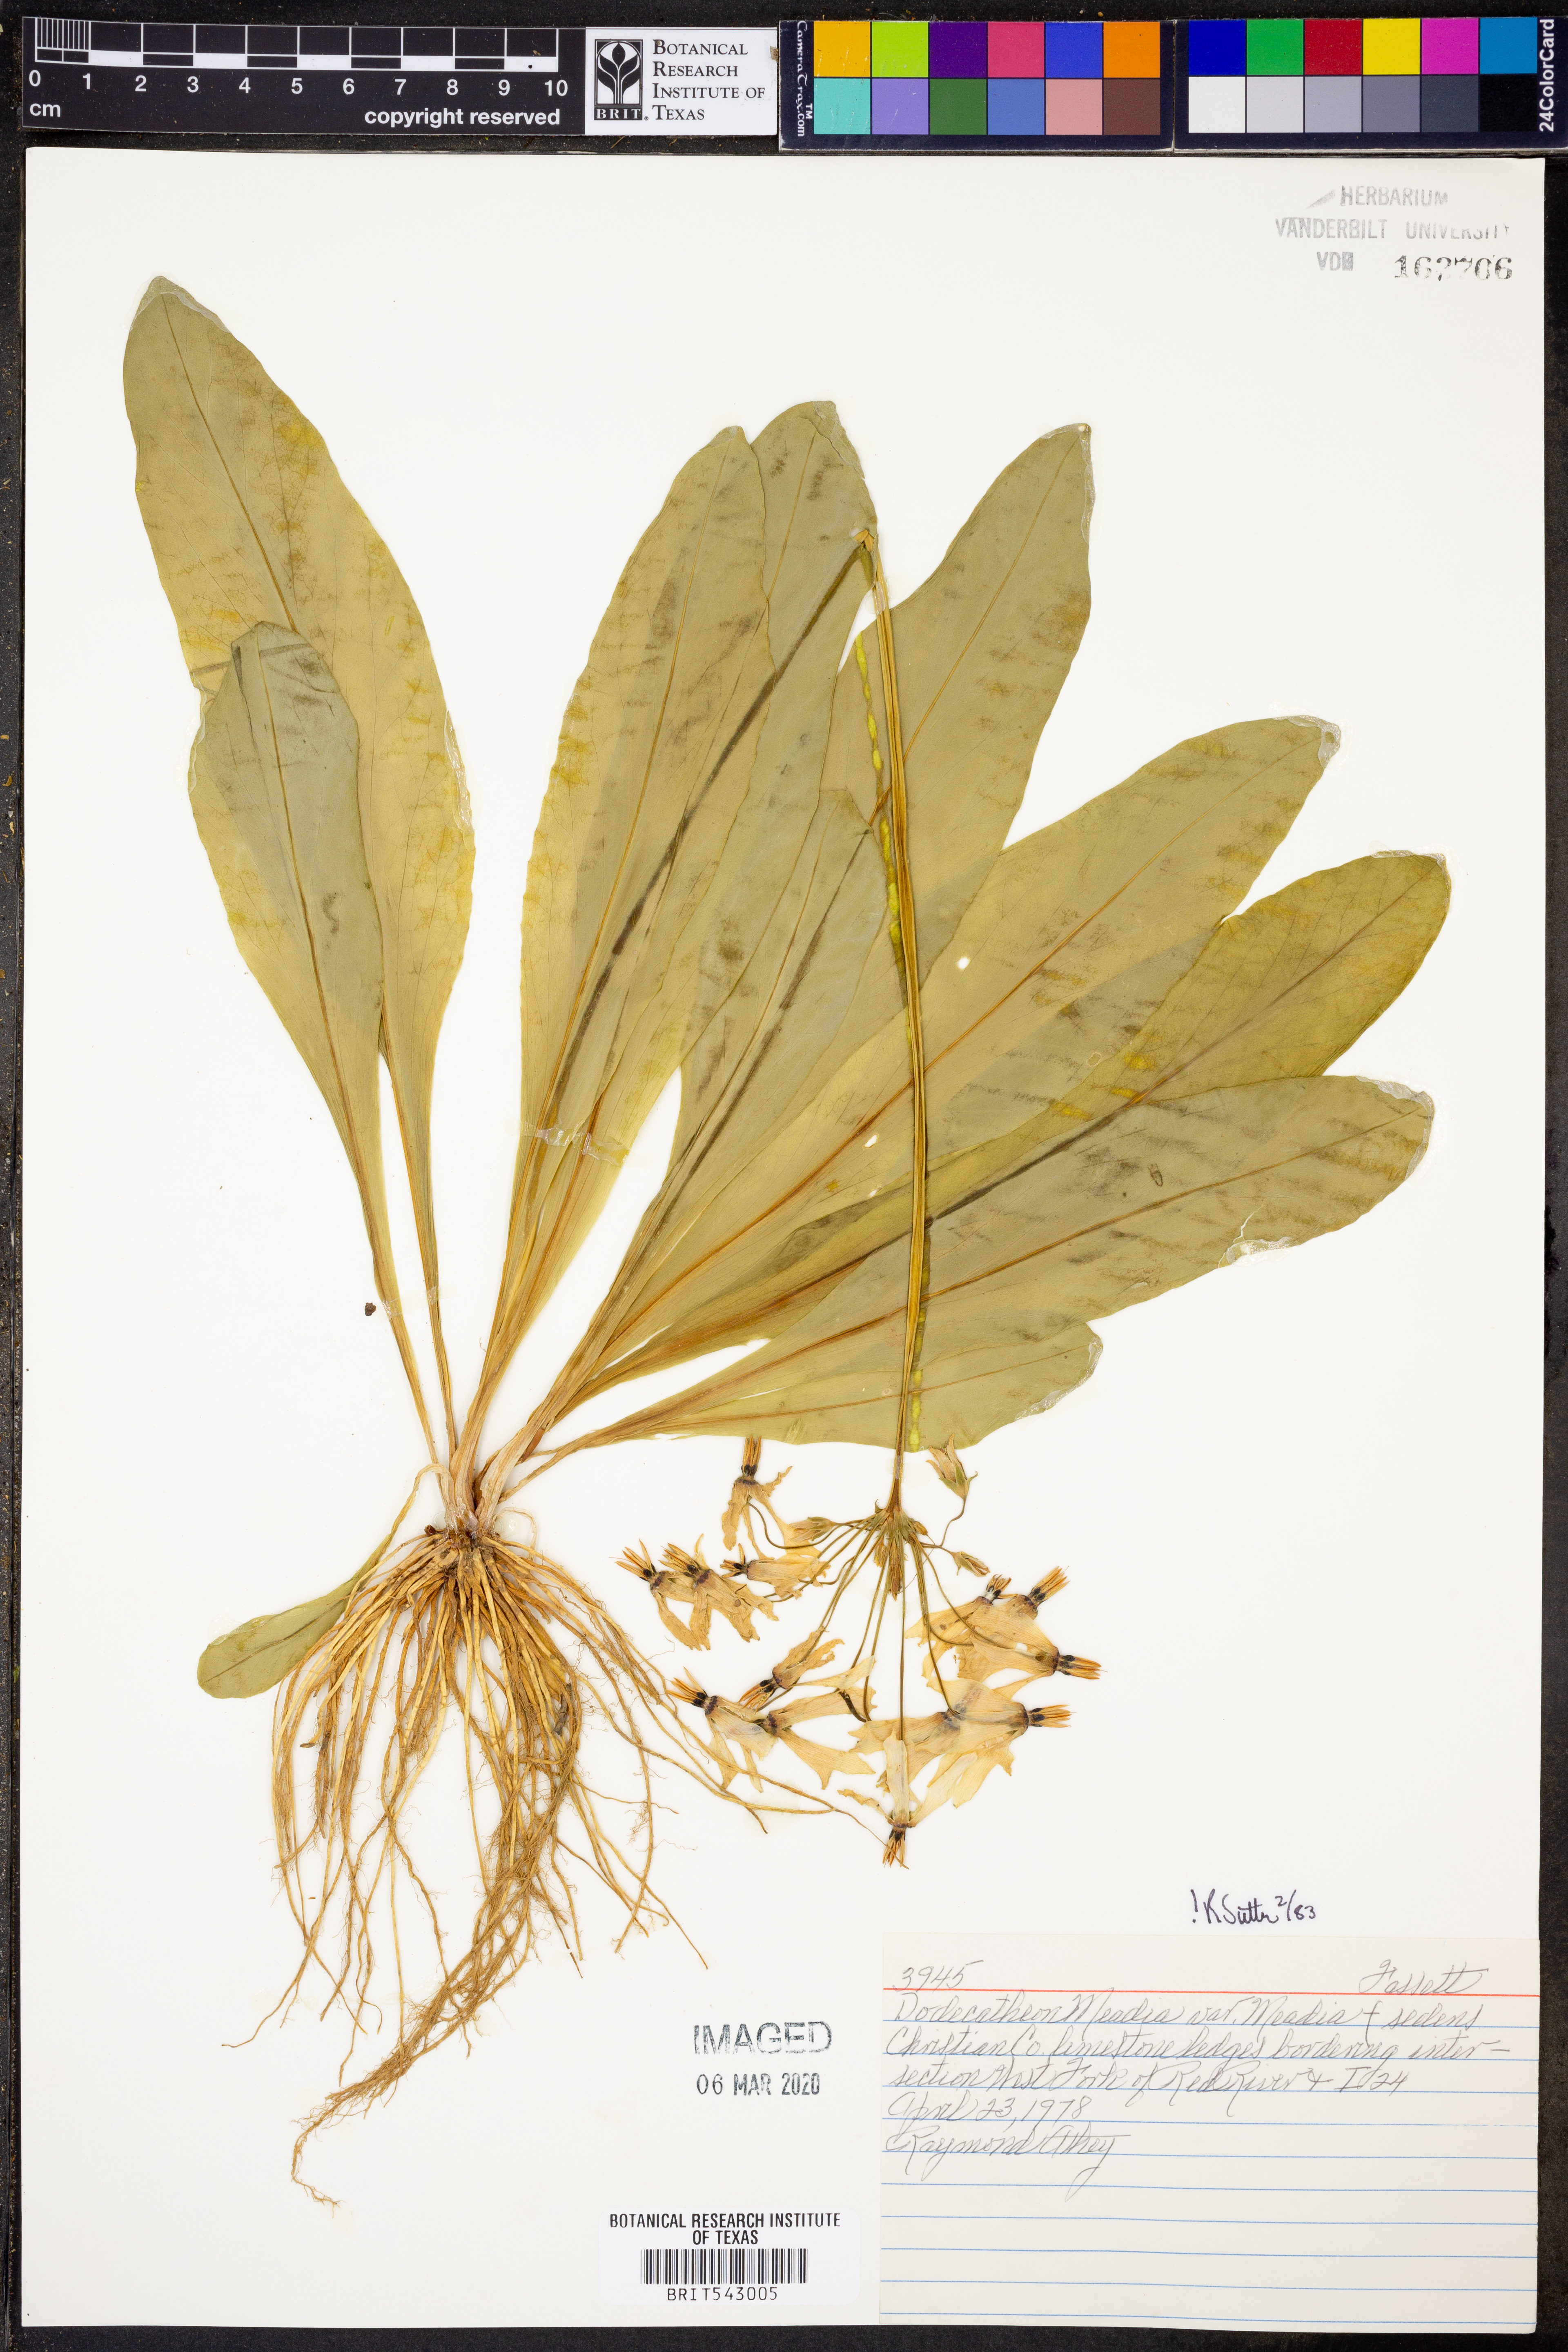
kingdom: Plantae
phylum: Tracheophyta
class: Magnoliopsida
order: Ericales
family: Primulaceae
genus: Dodecatheon
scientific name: Dodecatheon meadia
